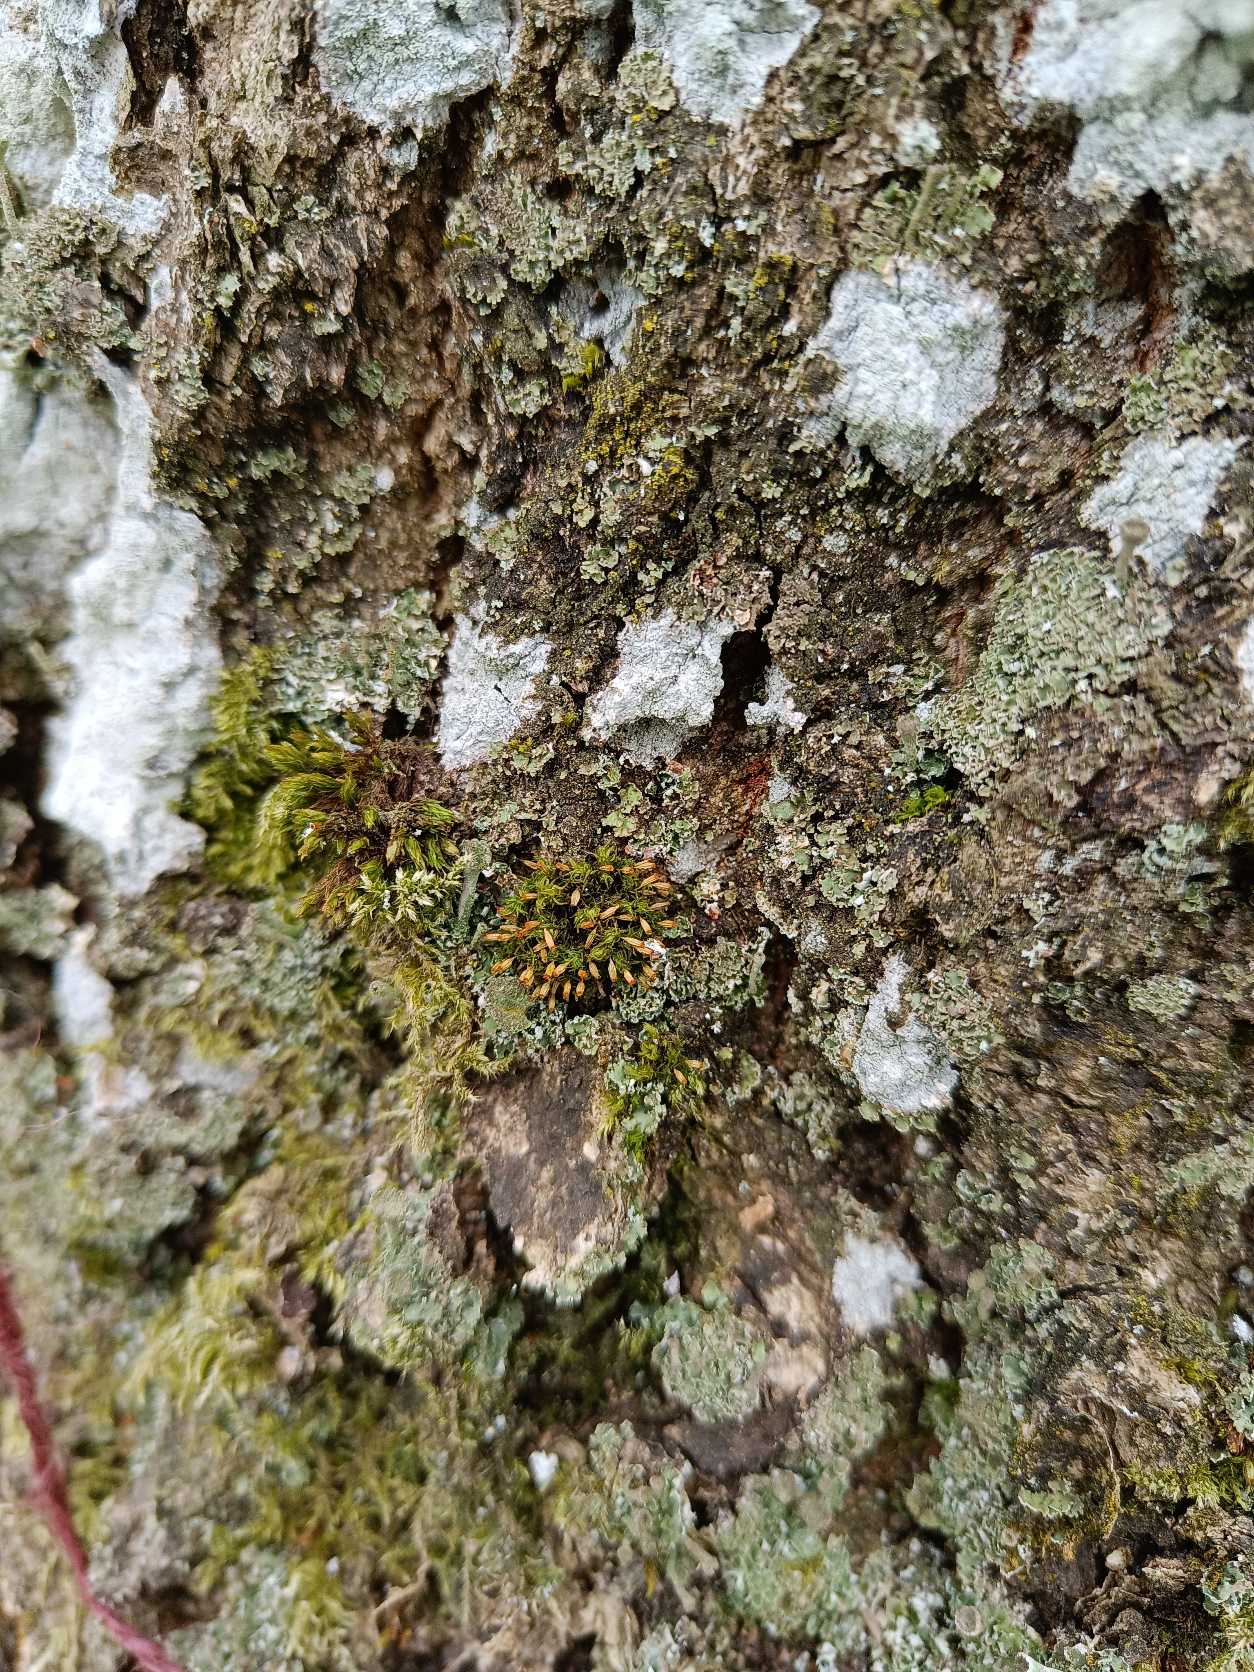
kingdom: Plantae
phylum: Bryophyta
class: Bryopsida
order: Orthotrichales
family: Orthotrichaceae
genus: Orthotrichum
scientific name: Orthotrichum pulchellum
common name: Smuk furehætte
